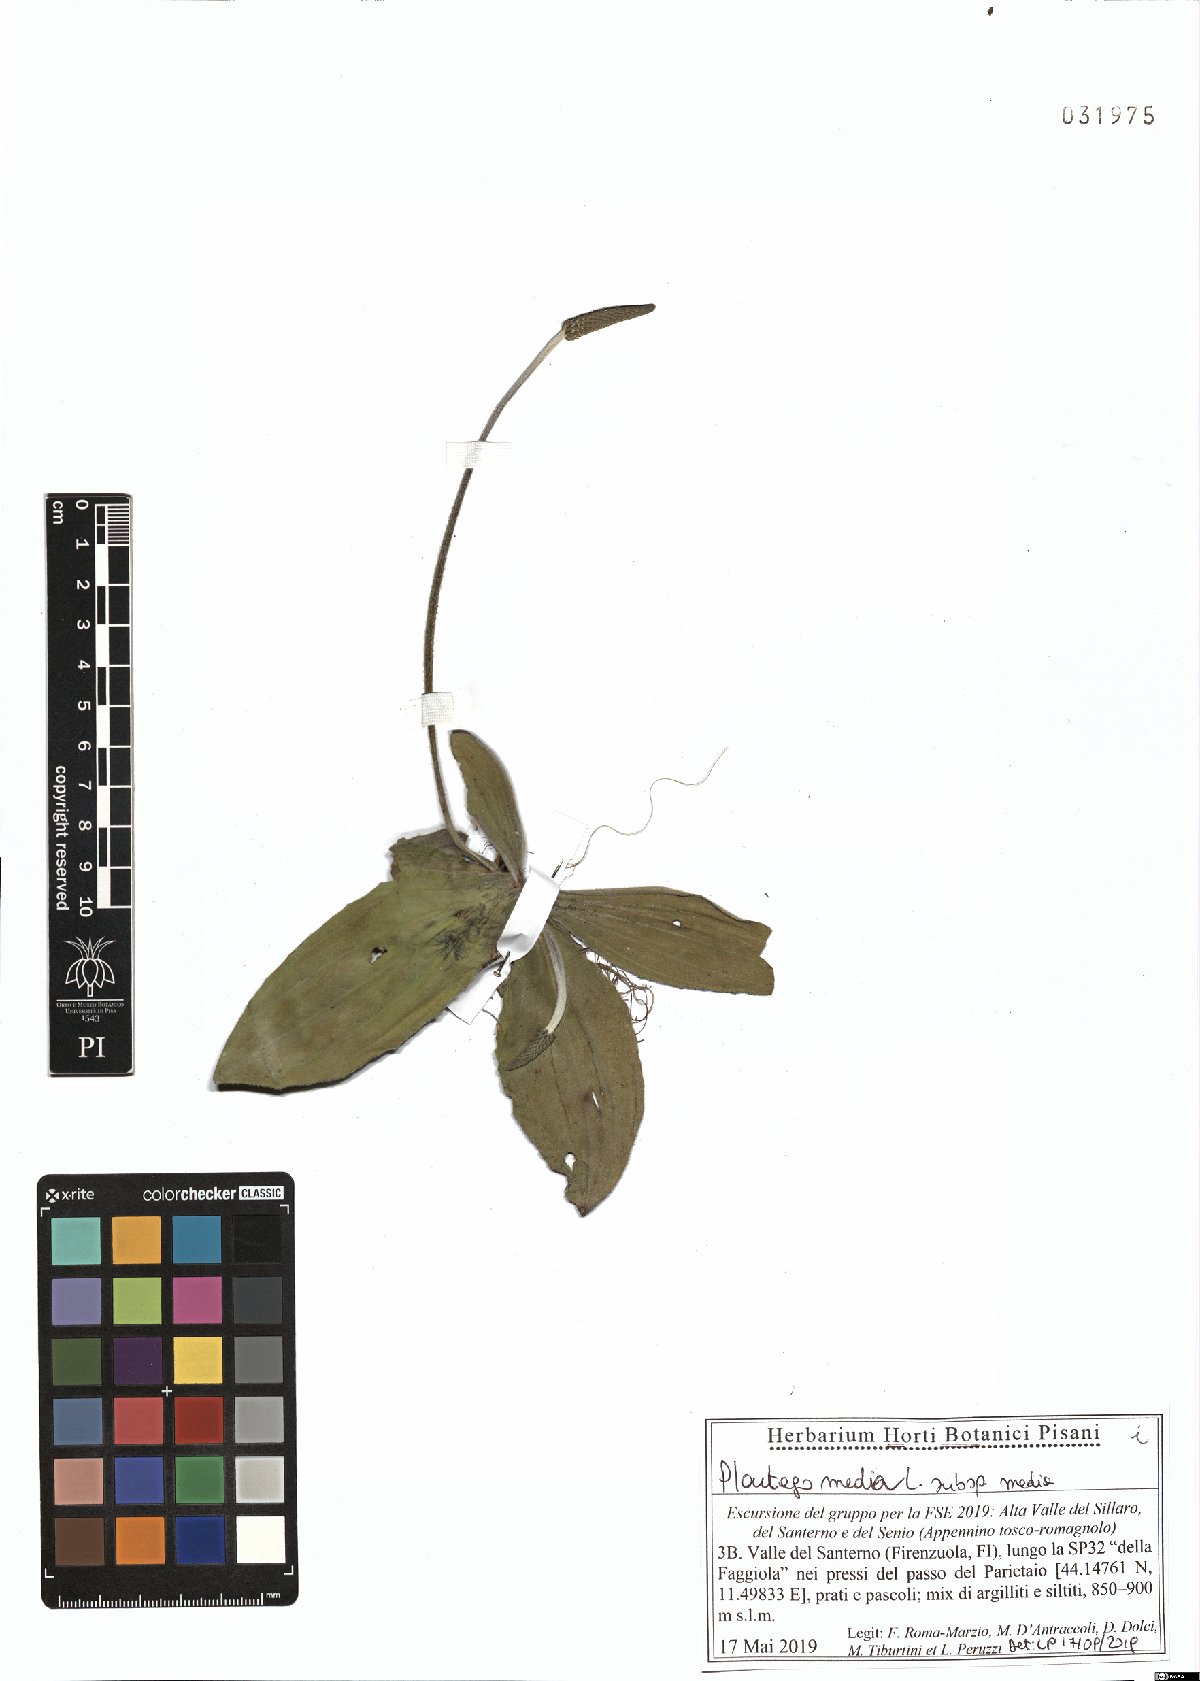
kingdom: Plantae
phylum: Tracheophyta
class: Magnoliopsida
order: Lamiales
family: Plantaginaceae
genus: Plantago
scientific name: Plantago media
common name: Hoary plantain
